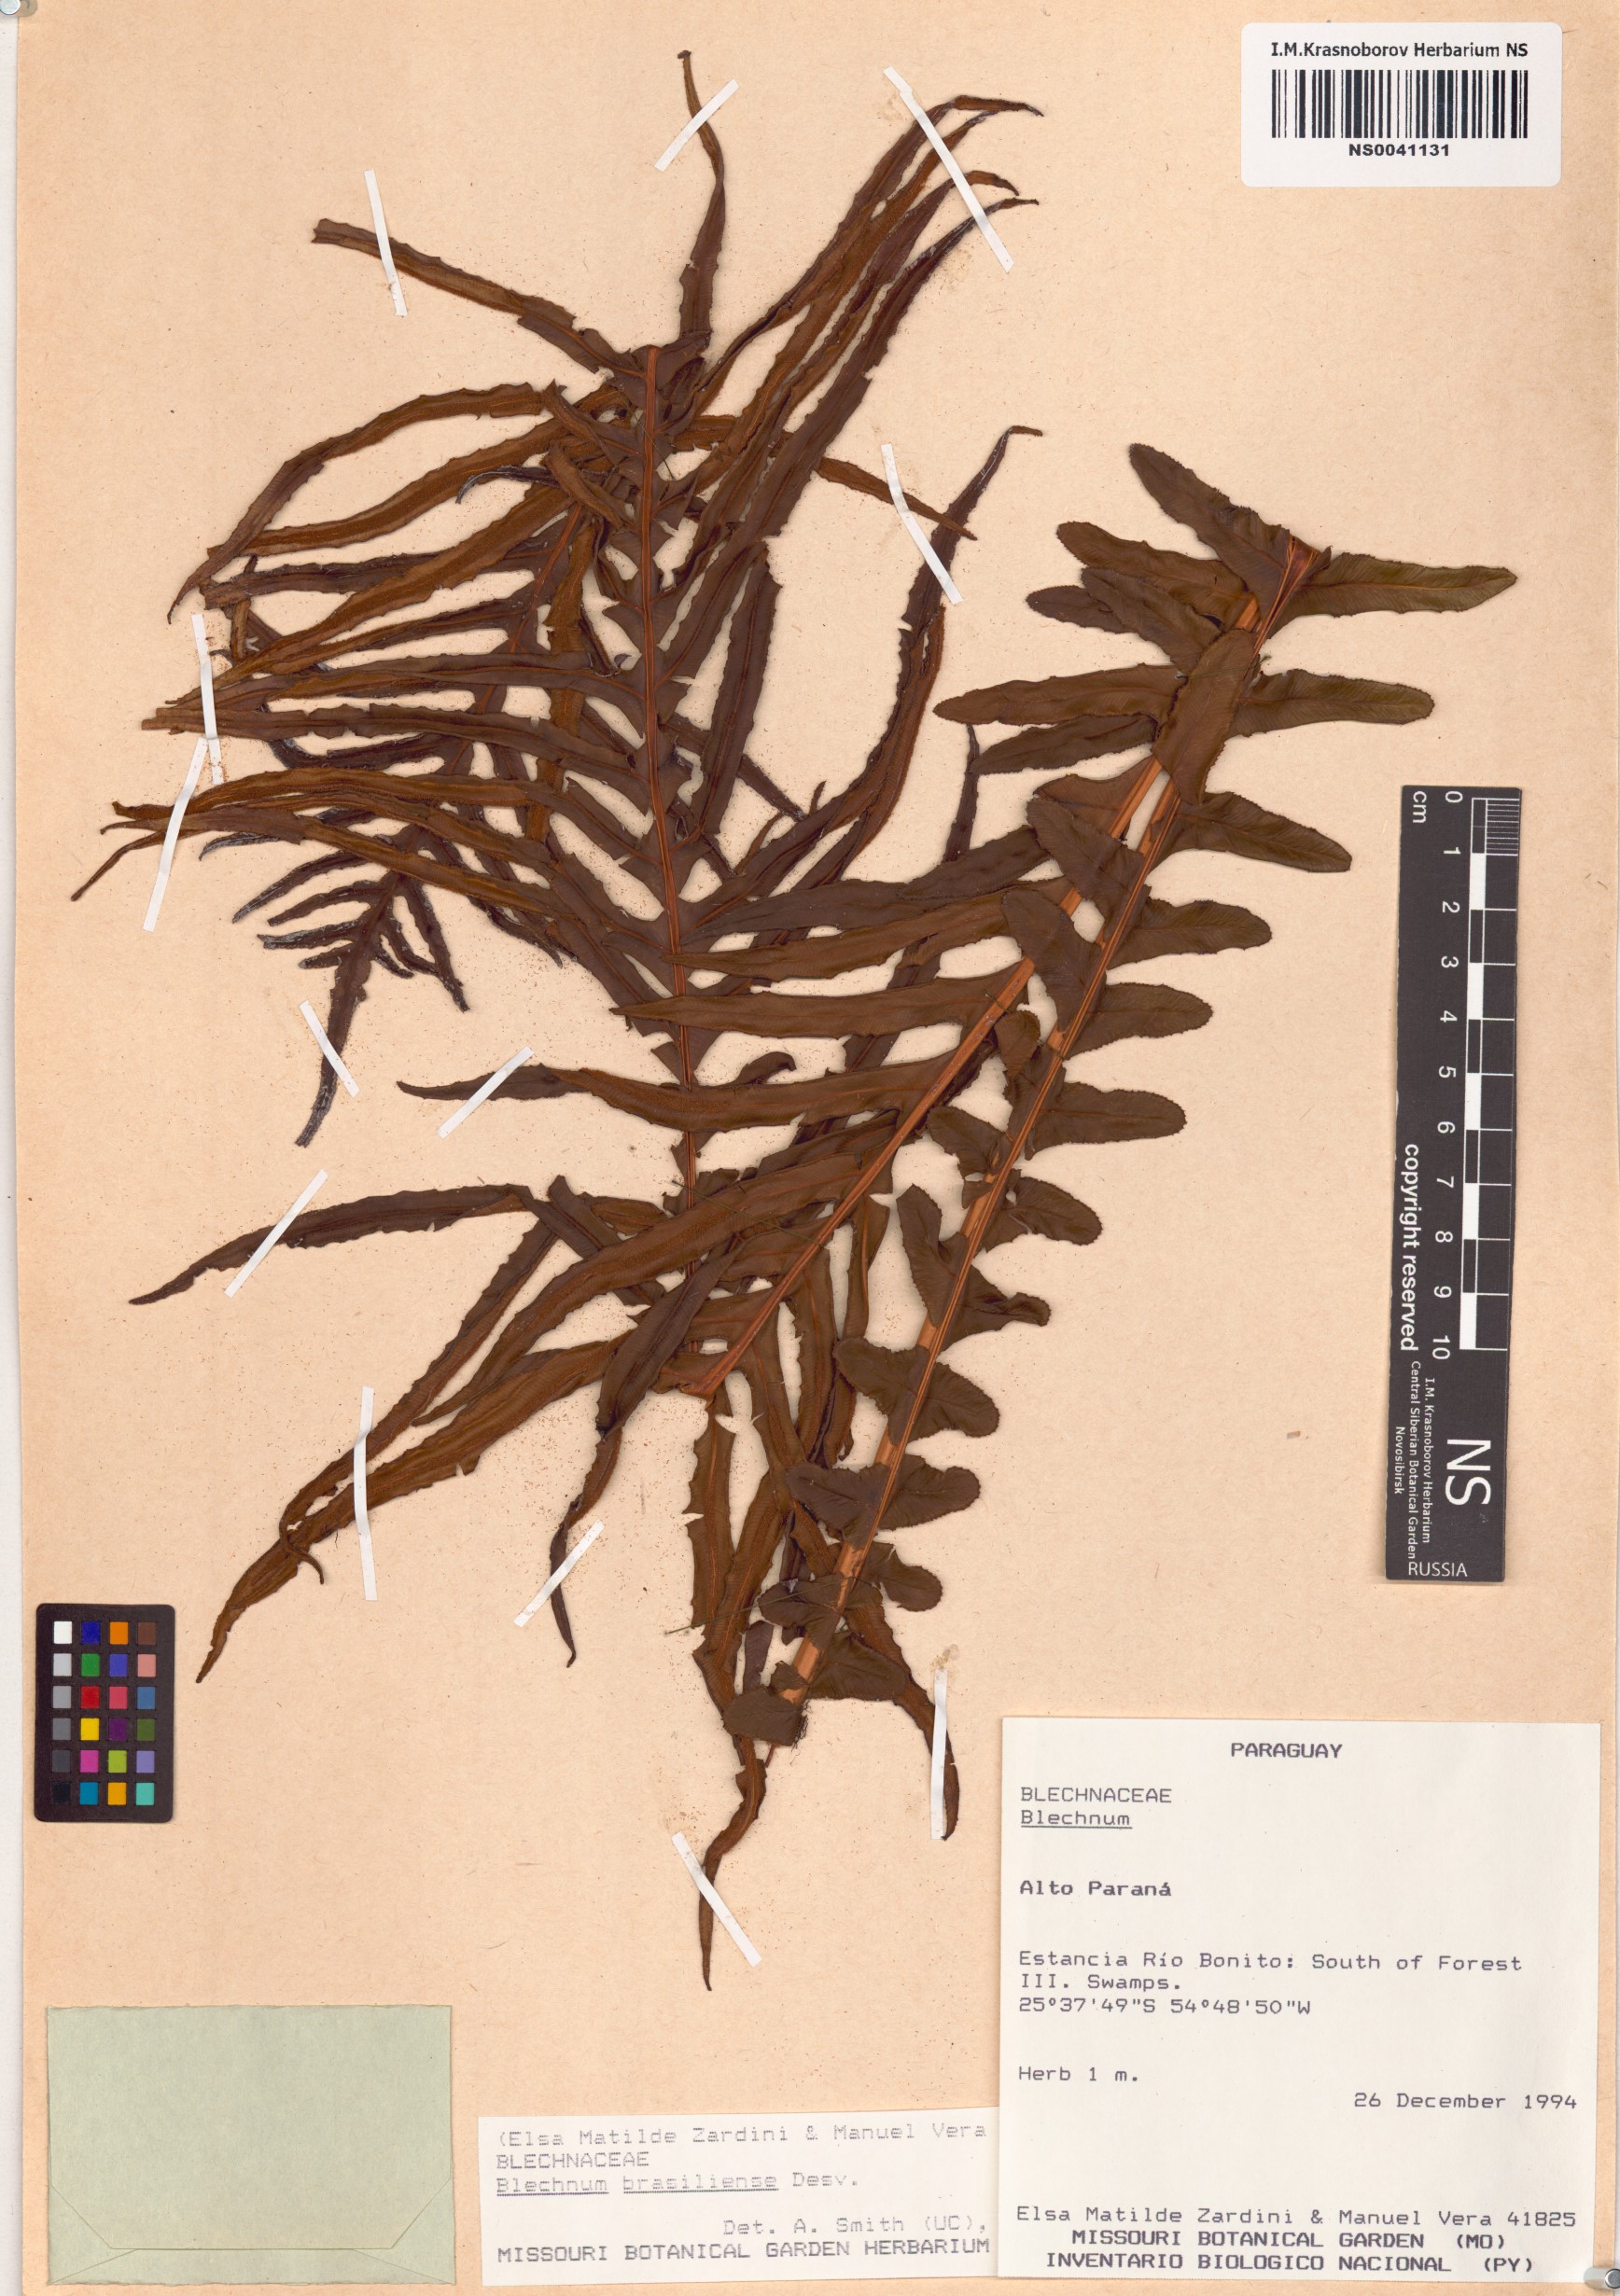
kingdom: Plantae
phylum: Tracheophyta
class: Polypodiopsida
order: Polypodiales
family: Blechnaceae
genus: Neoblechnum
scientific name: Neoblechnum brasiliense
